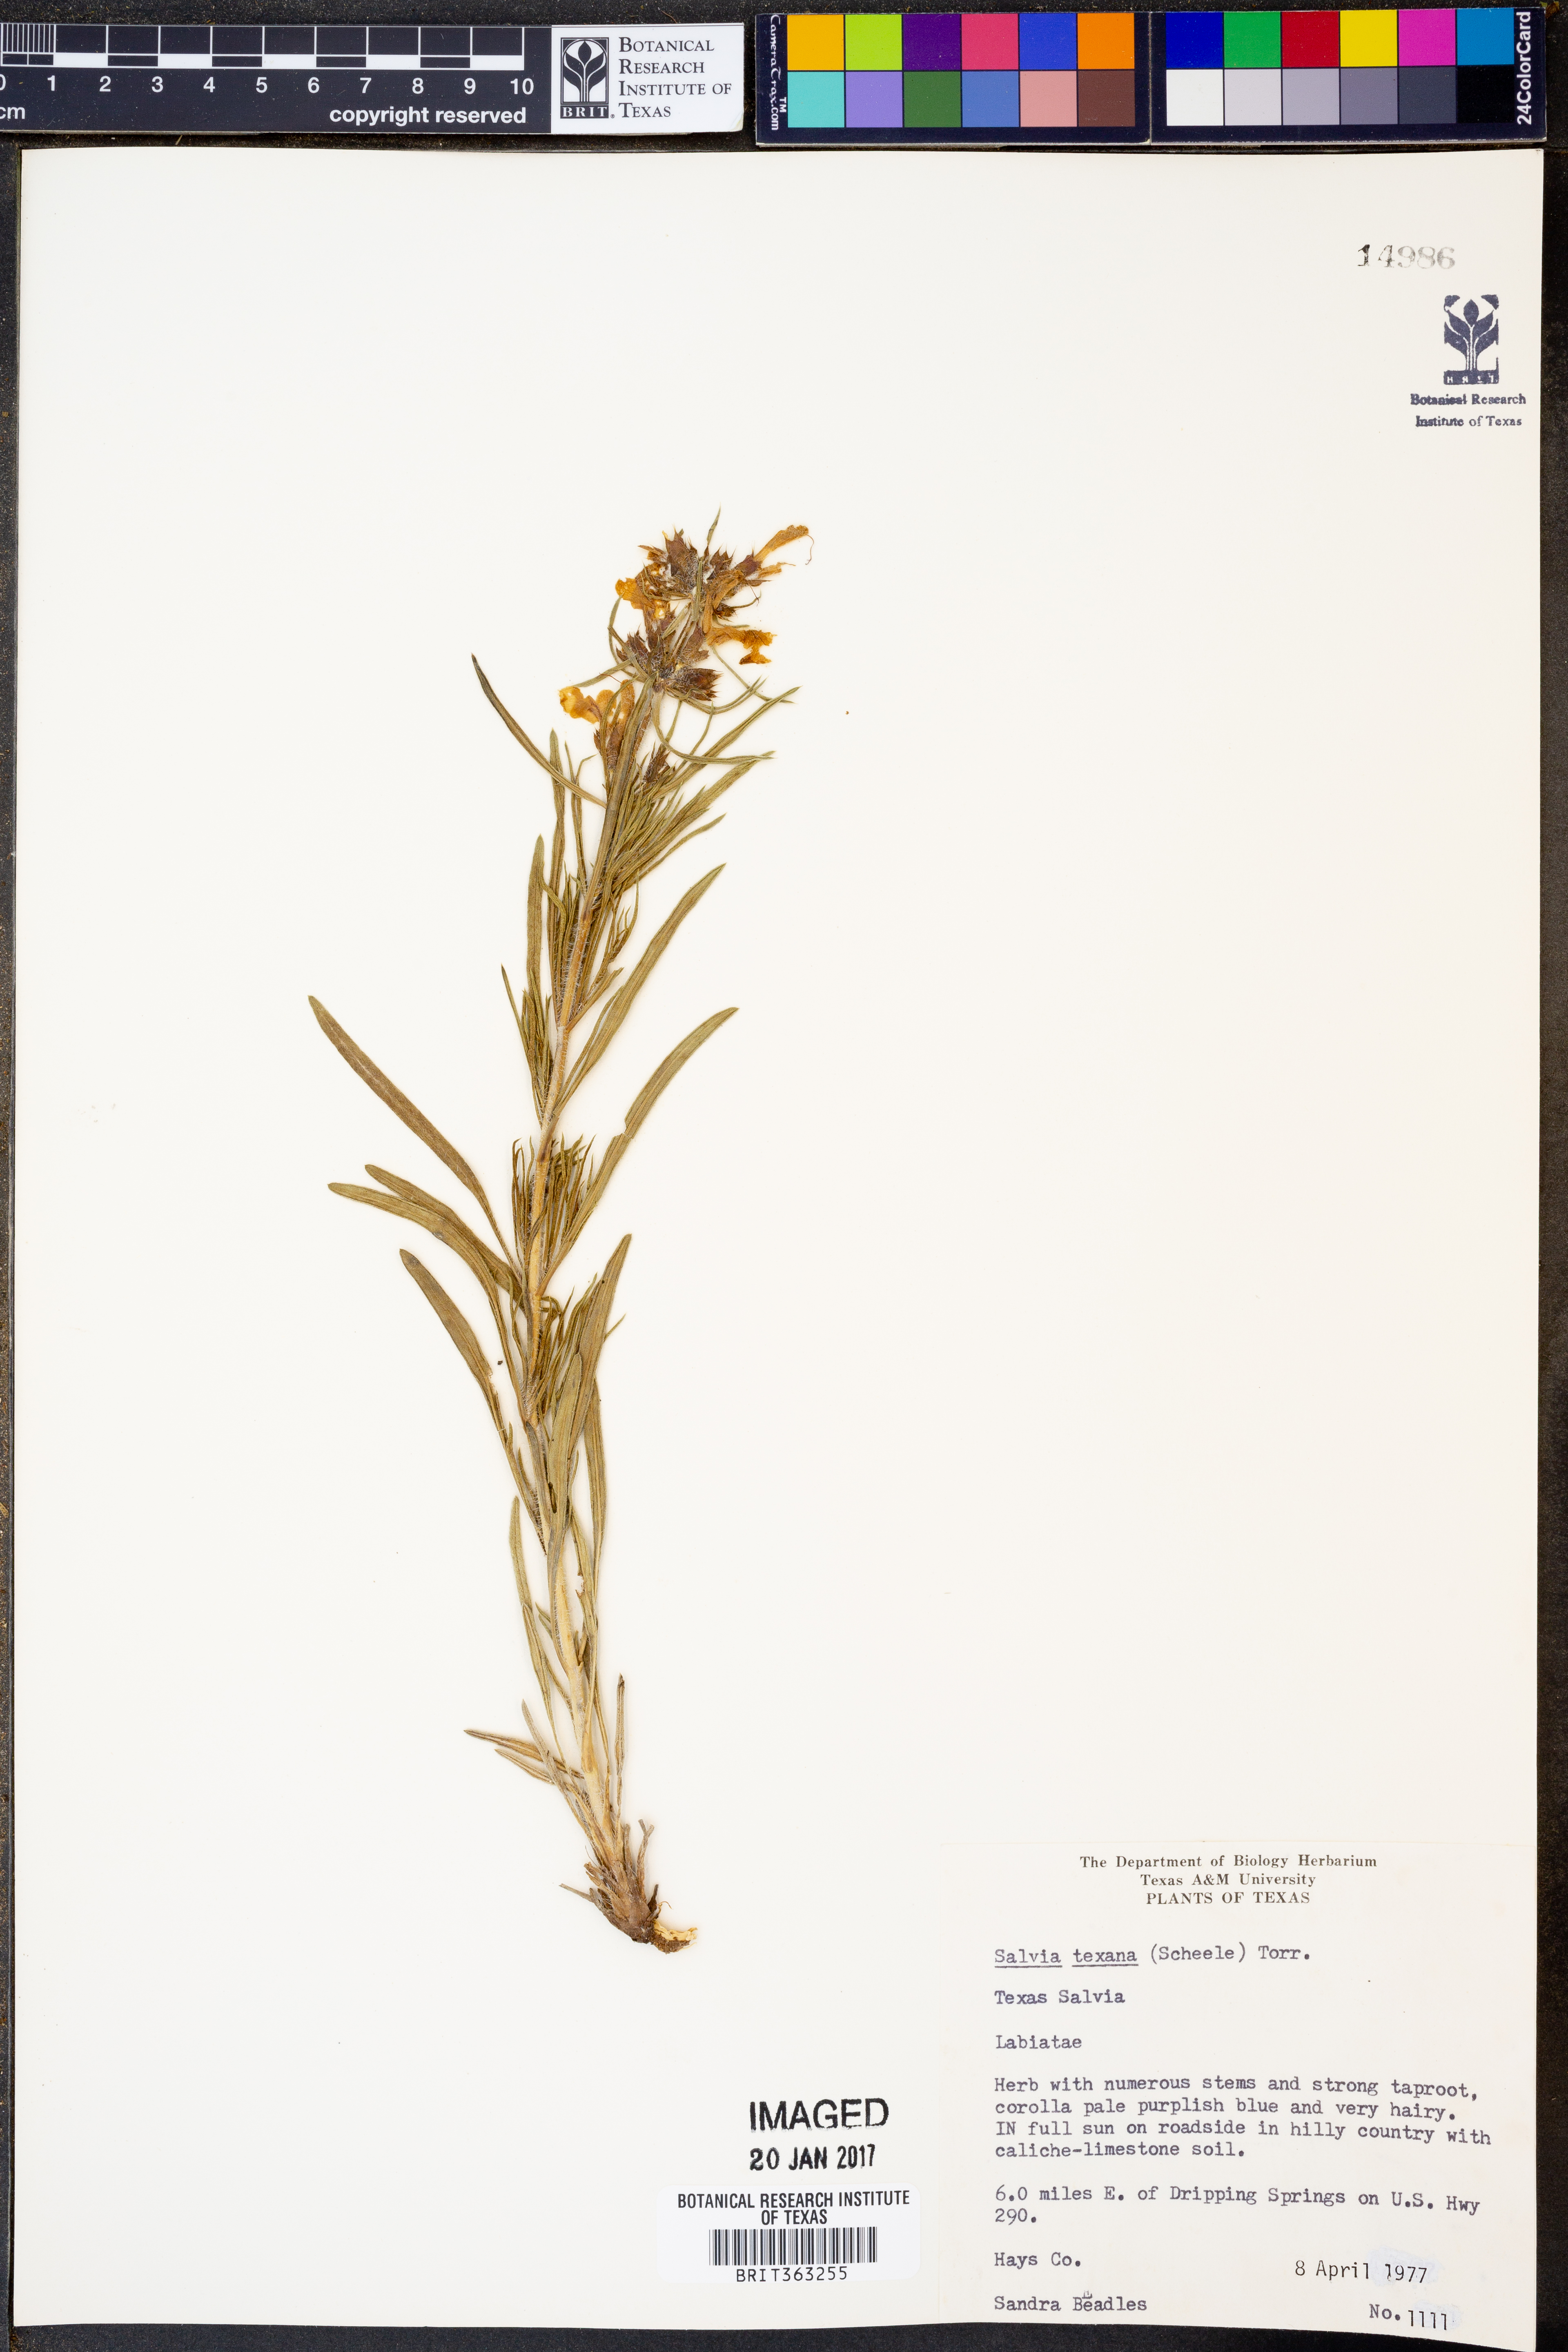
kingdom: Plantae
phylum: Tracheophyta
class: Magnoliopsida
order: Lamiales
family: Lamiaceae
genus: Salvia
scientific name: Salvia texana
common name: Texas sage
